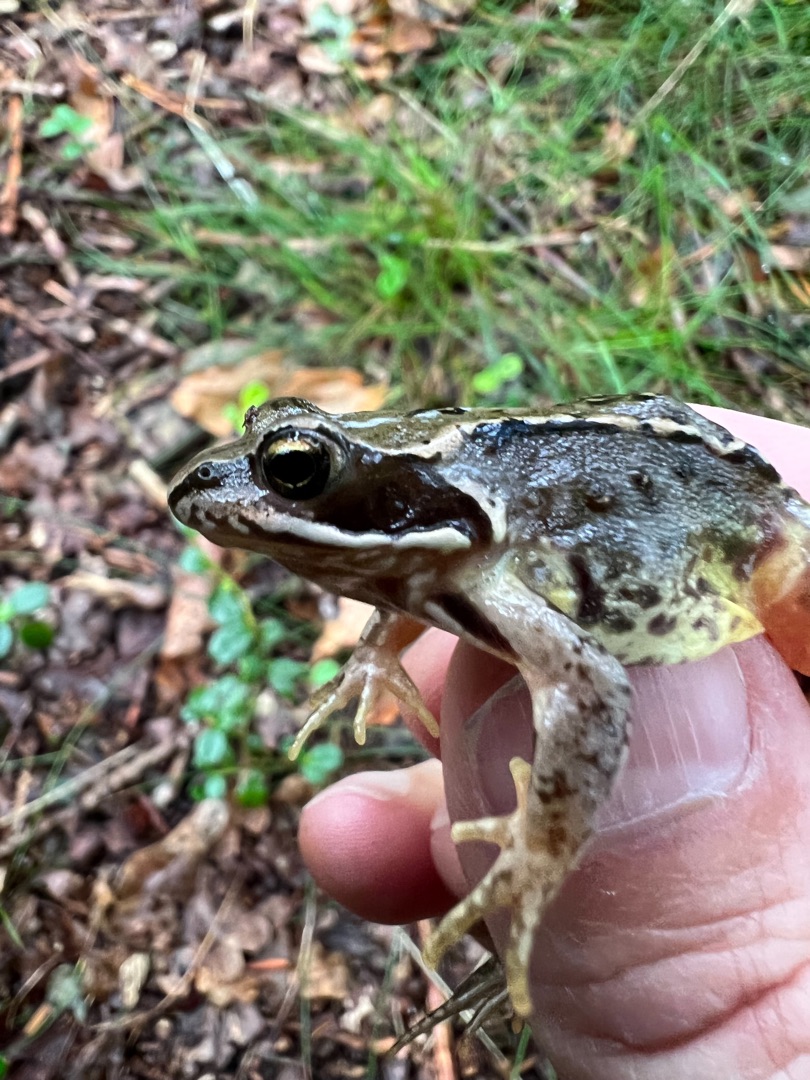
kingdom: Animalia
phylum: Chordata
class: Amphibia
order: Anura
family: Ranidae
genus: Rana
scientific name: Rana temporaria
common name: Butsnudet frø
